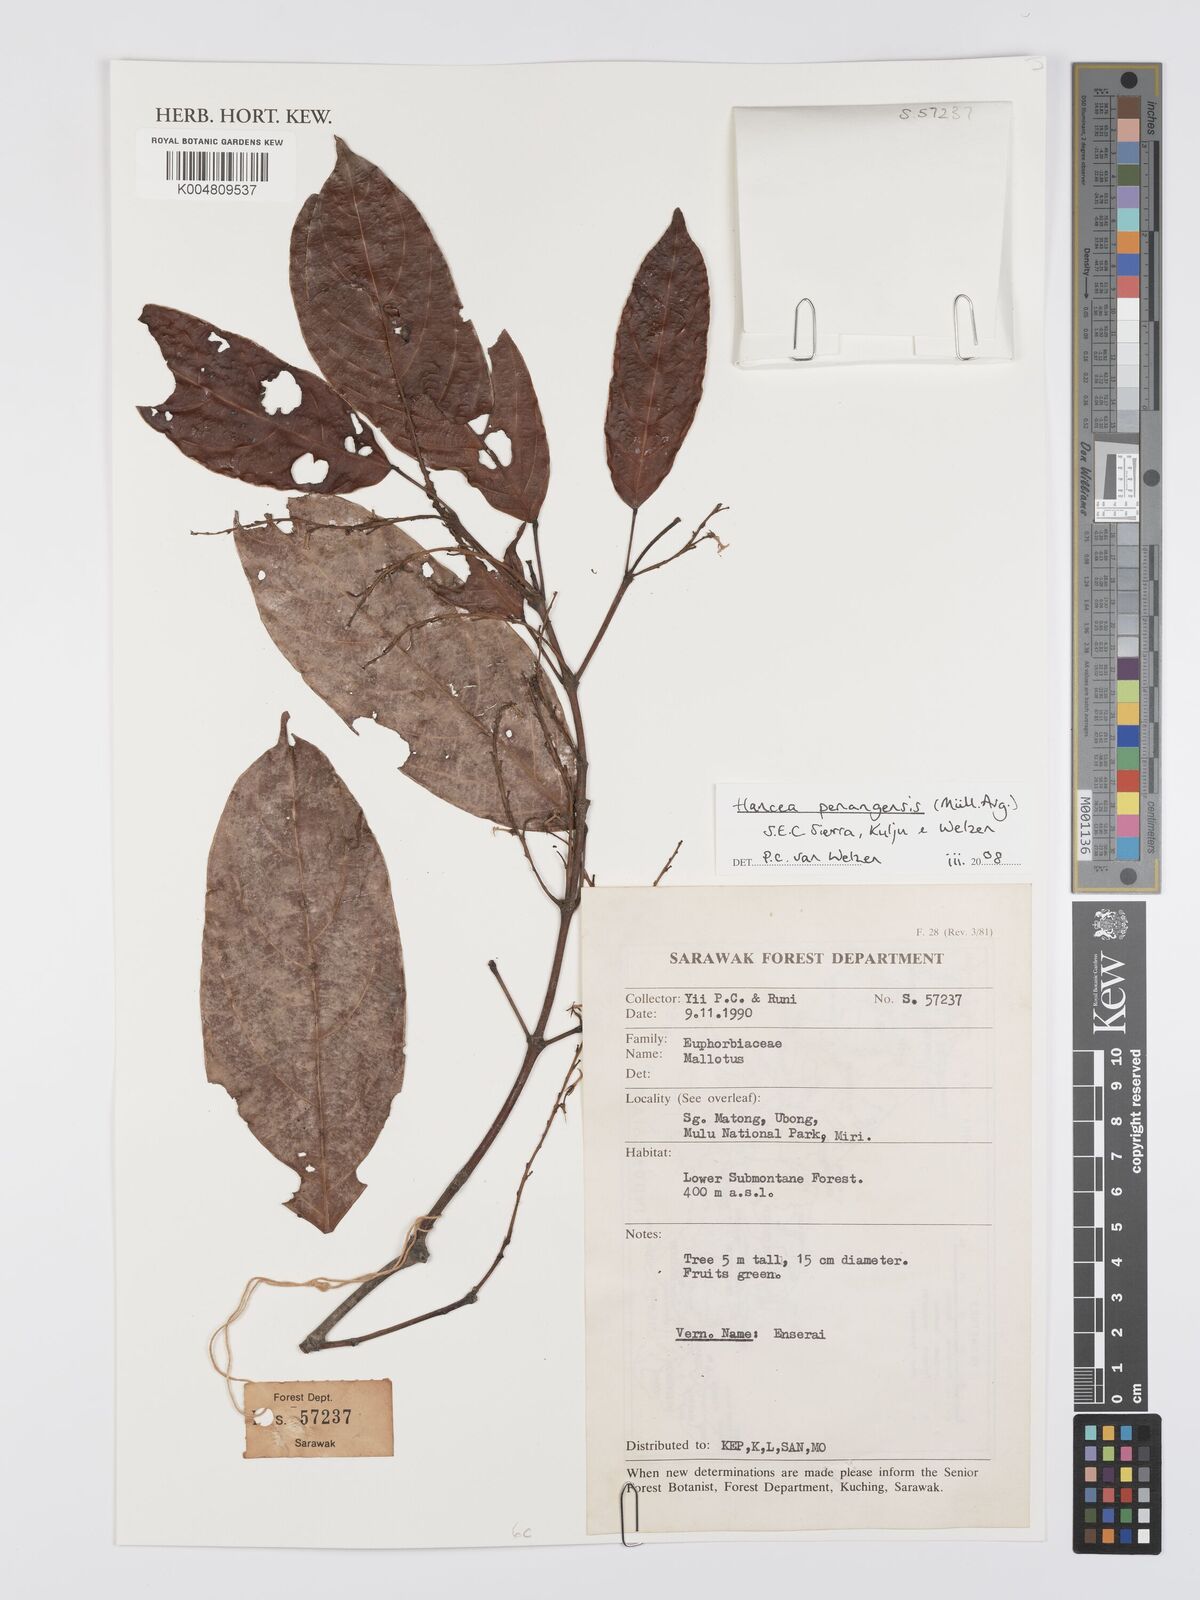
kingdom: Plantae
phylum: Tracheophyta
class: Magnoliopsida
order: Malpighiales
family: Euphorbiaceae
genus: Hancea
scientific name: Hancea penangensis
